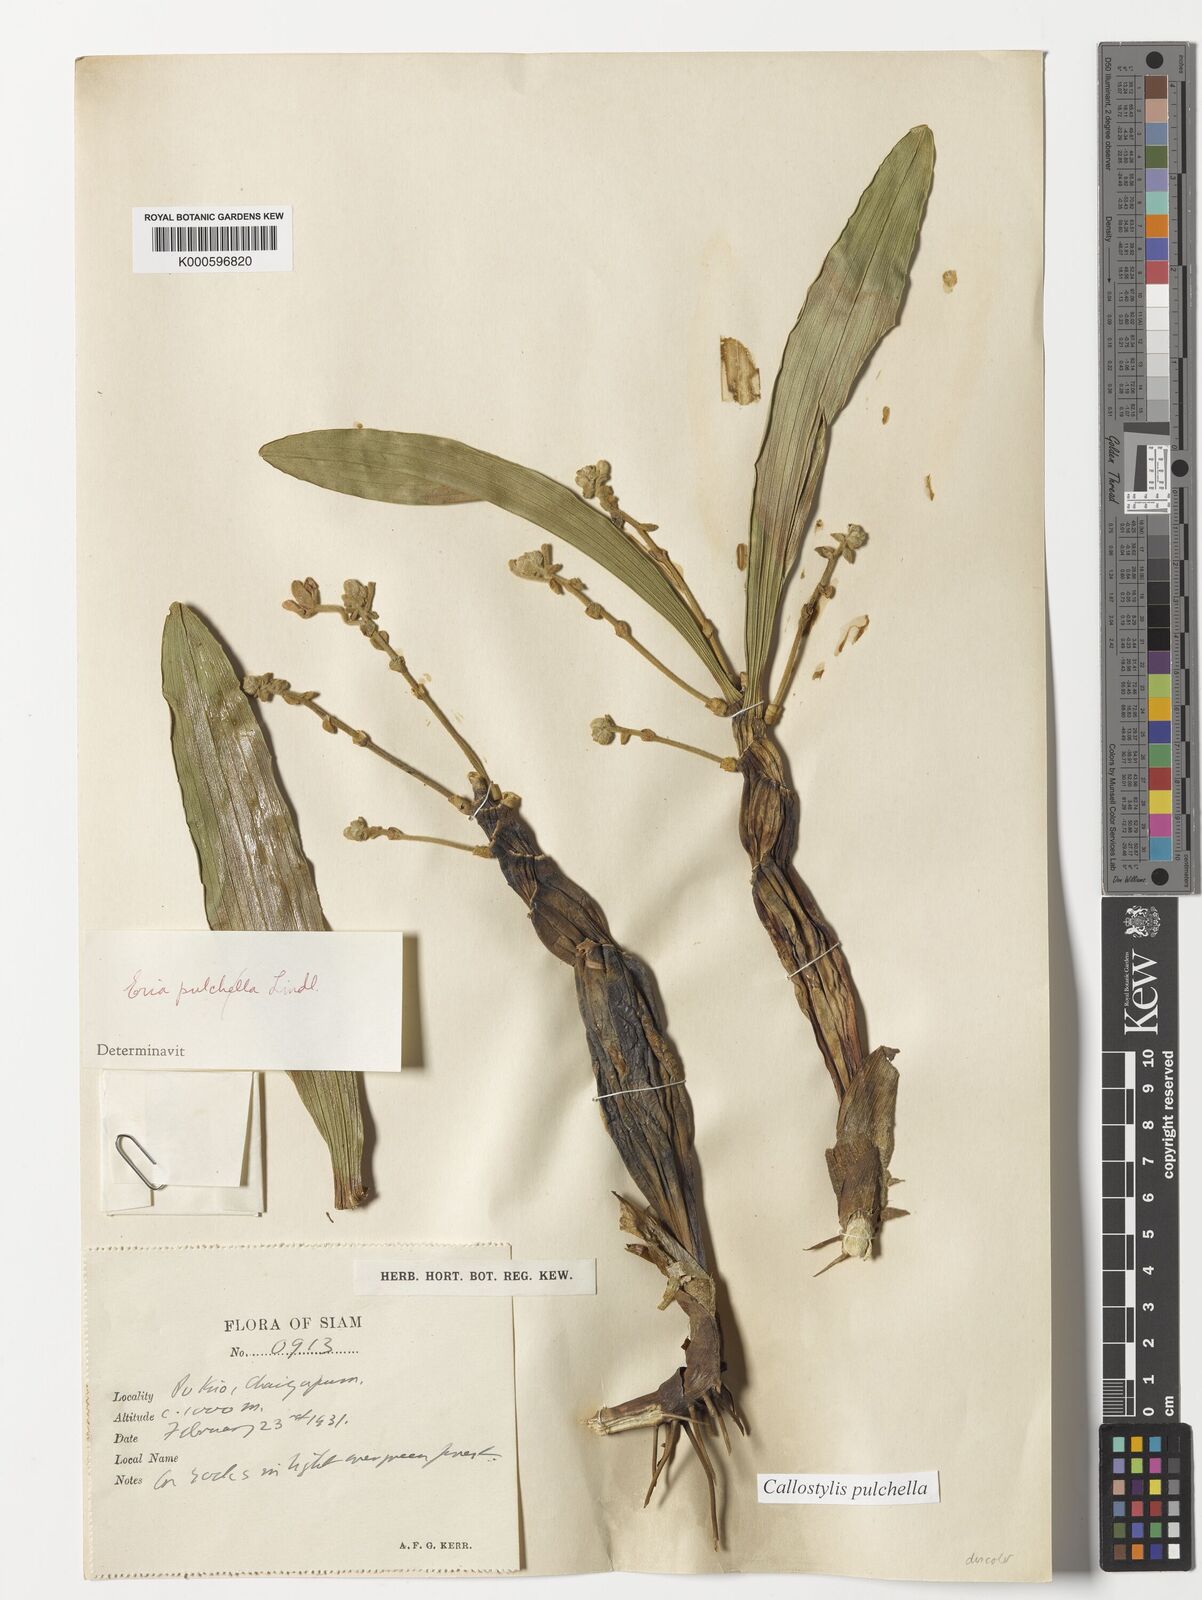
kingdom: Plantae
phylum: Tracheophyta
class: Liliopsida
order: Asparagales
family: Orchidaceae
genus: Callostylis
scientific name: Callostylis pulchella
